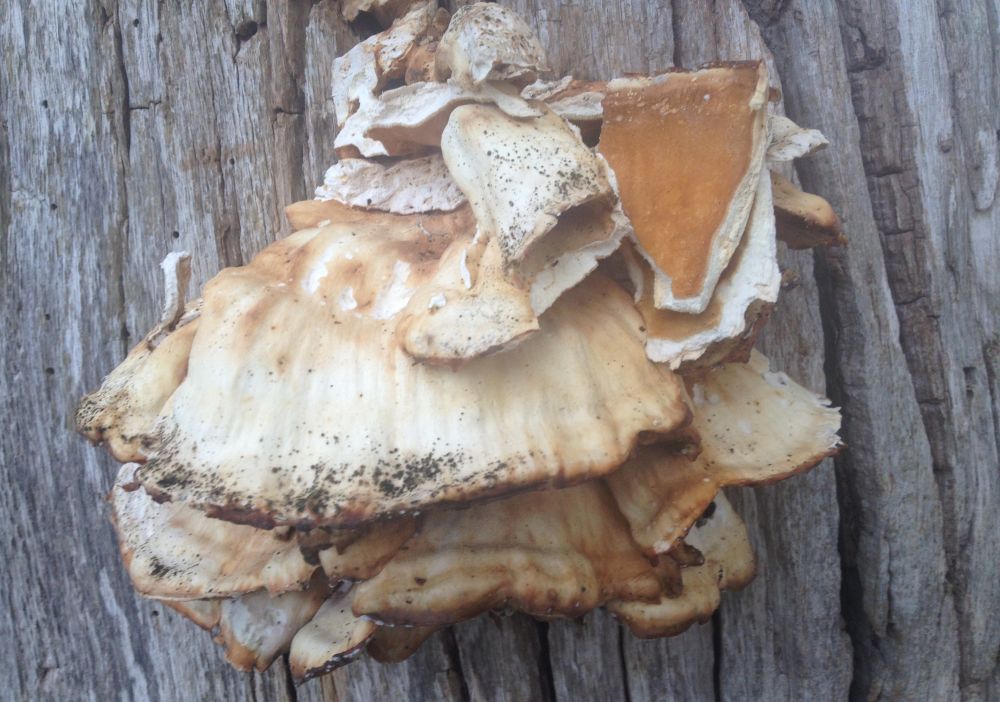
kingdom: Fungi
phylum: Basidiomycota
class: Agaricomycetes
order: Polyporales
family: Laetiporaceae
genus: Laetiporus
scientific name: Laetiporus sulphureus
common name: svovlporesvamp
